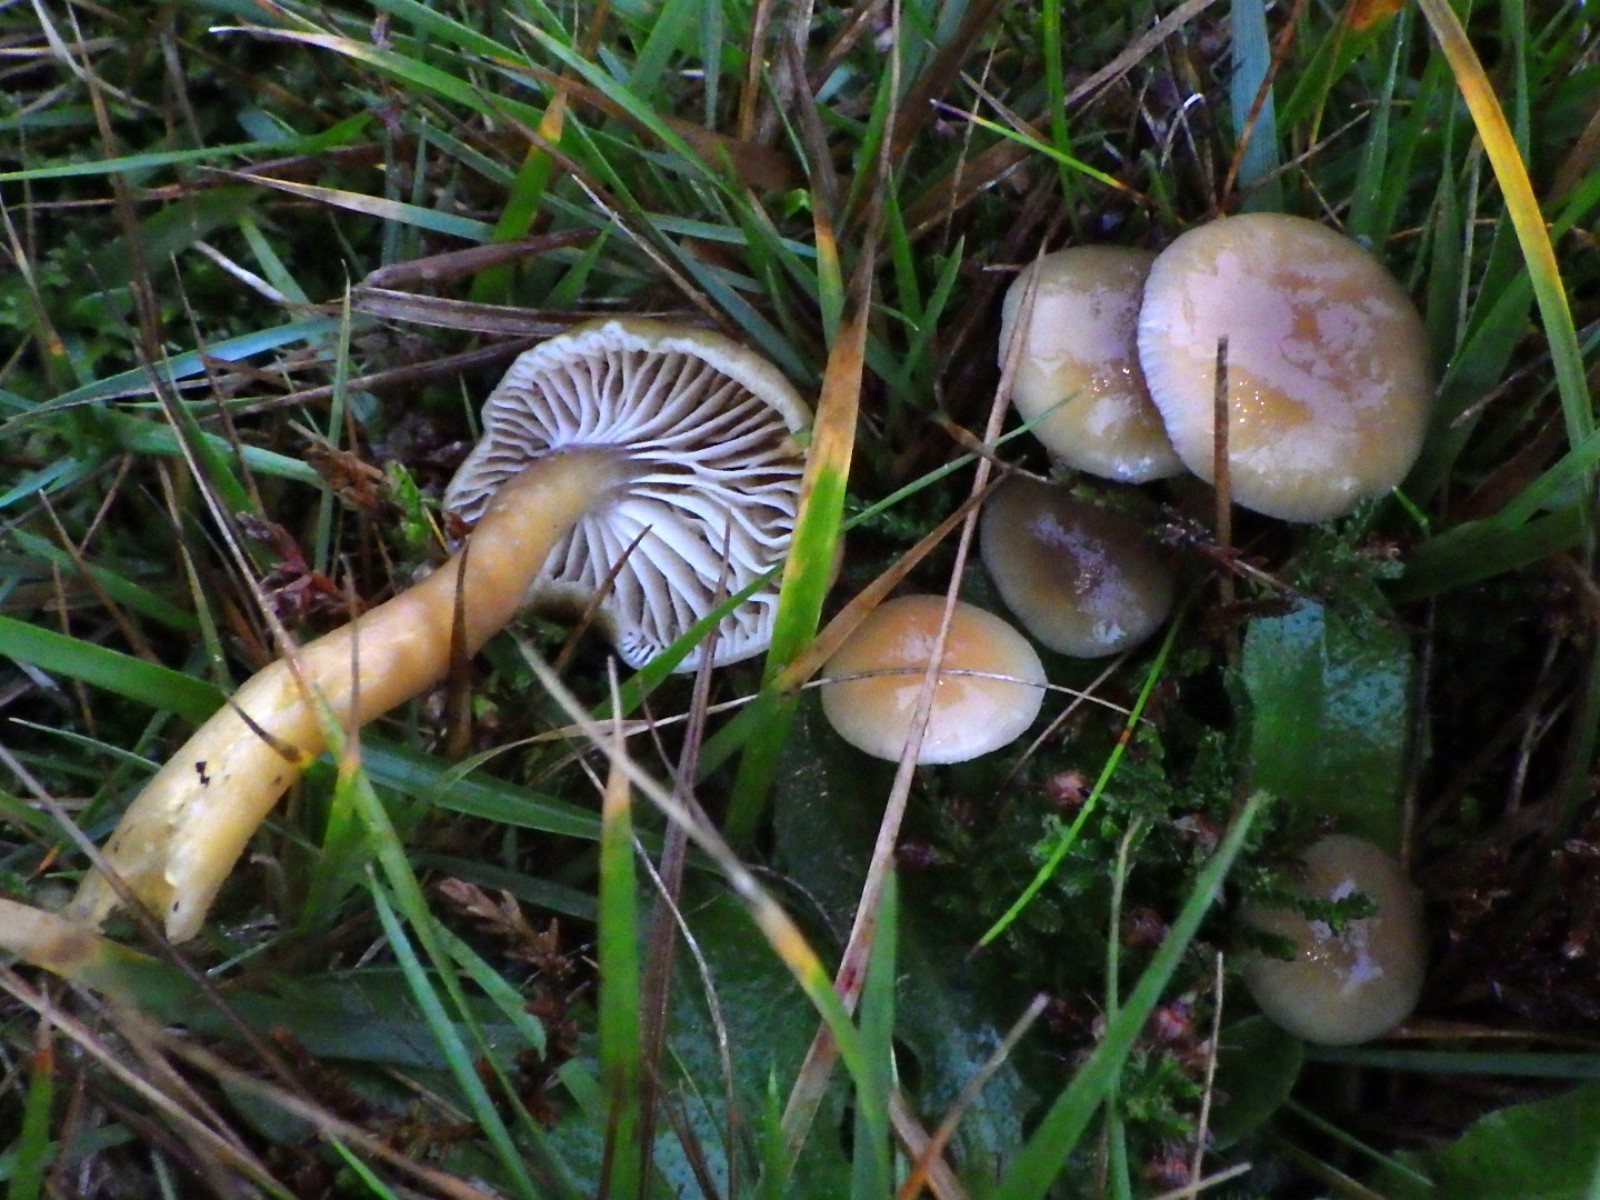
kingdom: Fungi
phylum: Basidiomycota
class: Agaricomycetes
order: Agaricales
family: Hygrophoraceae
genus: Gliophorus
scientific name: Gliophorus laetus
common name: brusk-vokshat
